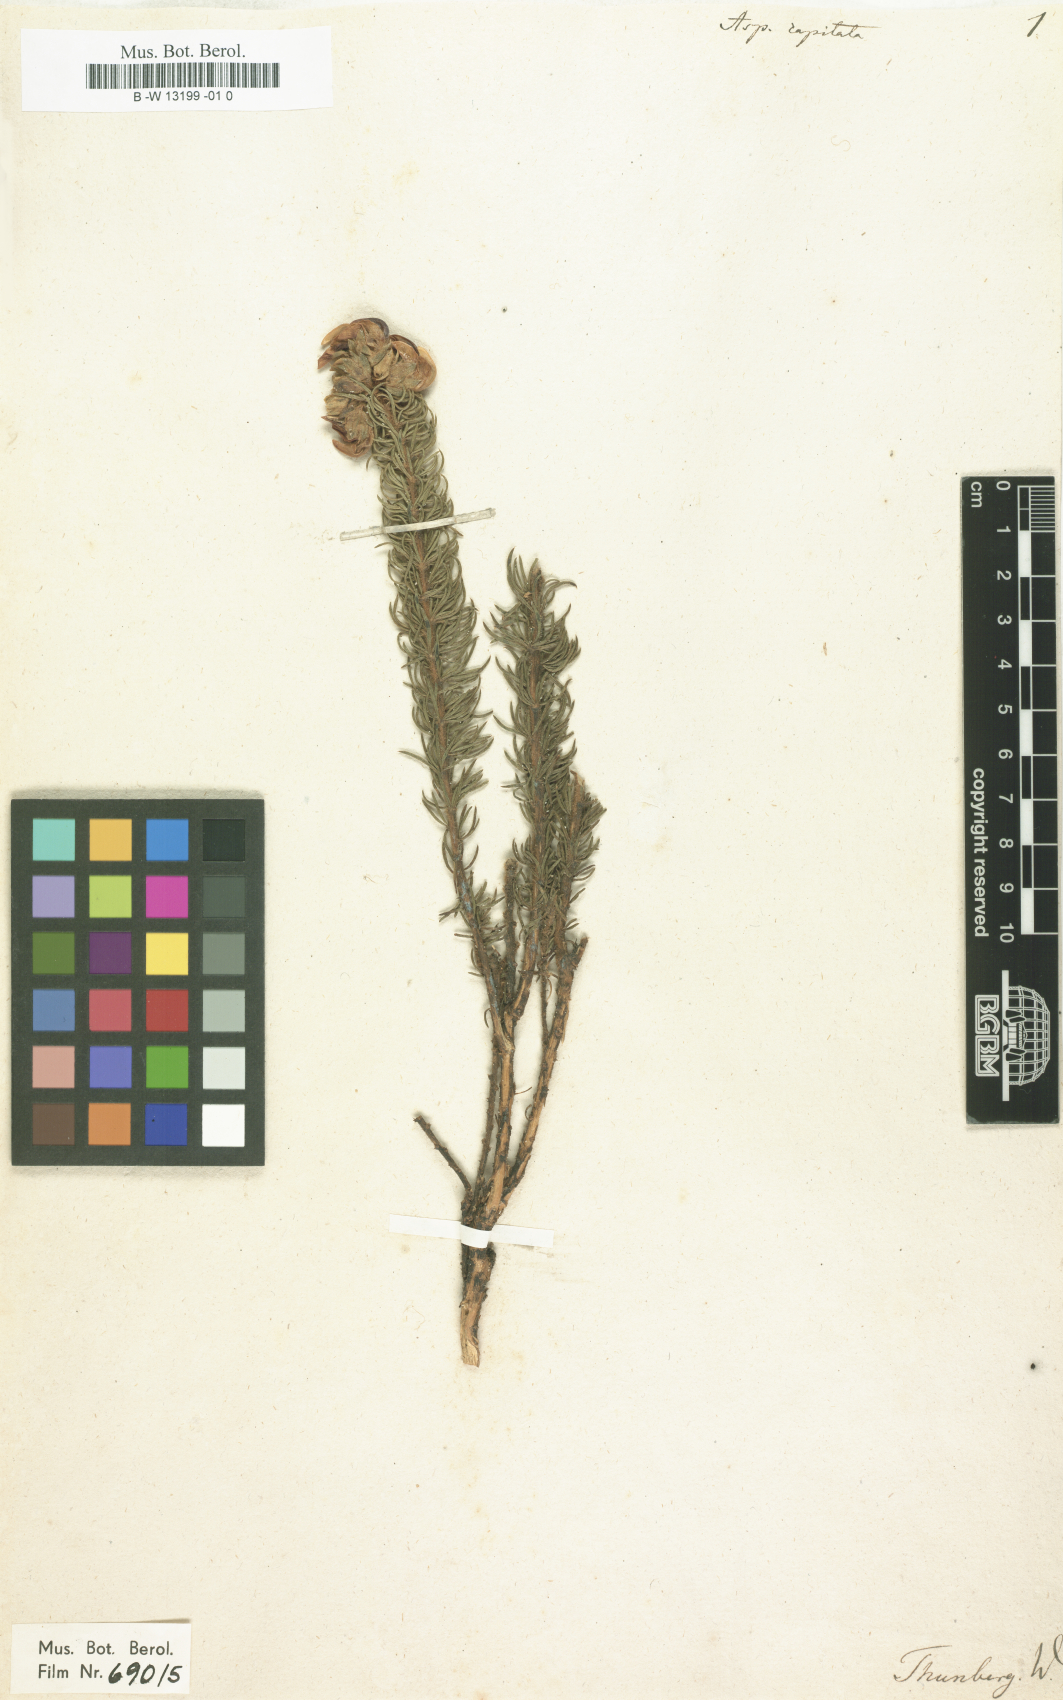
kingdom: Plantae
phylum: Tracheophyta
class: Magnoliopsida
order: Fabales
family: Fabaceae
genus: Aspalathus
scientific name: Aspalathus capitata
